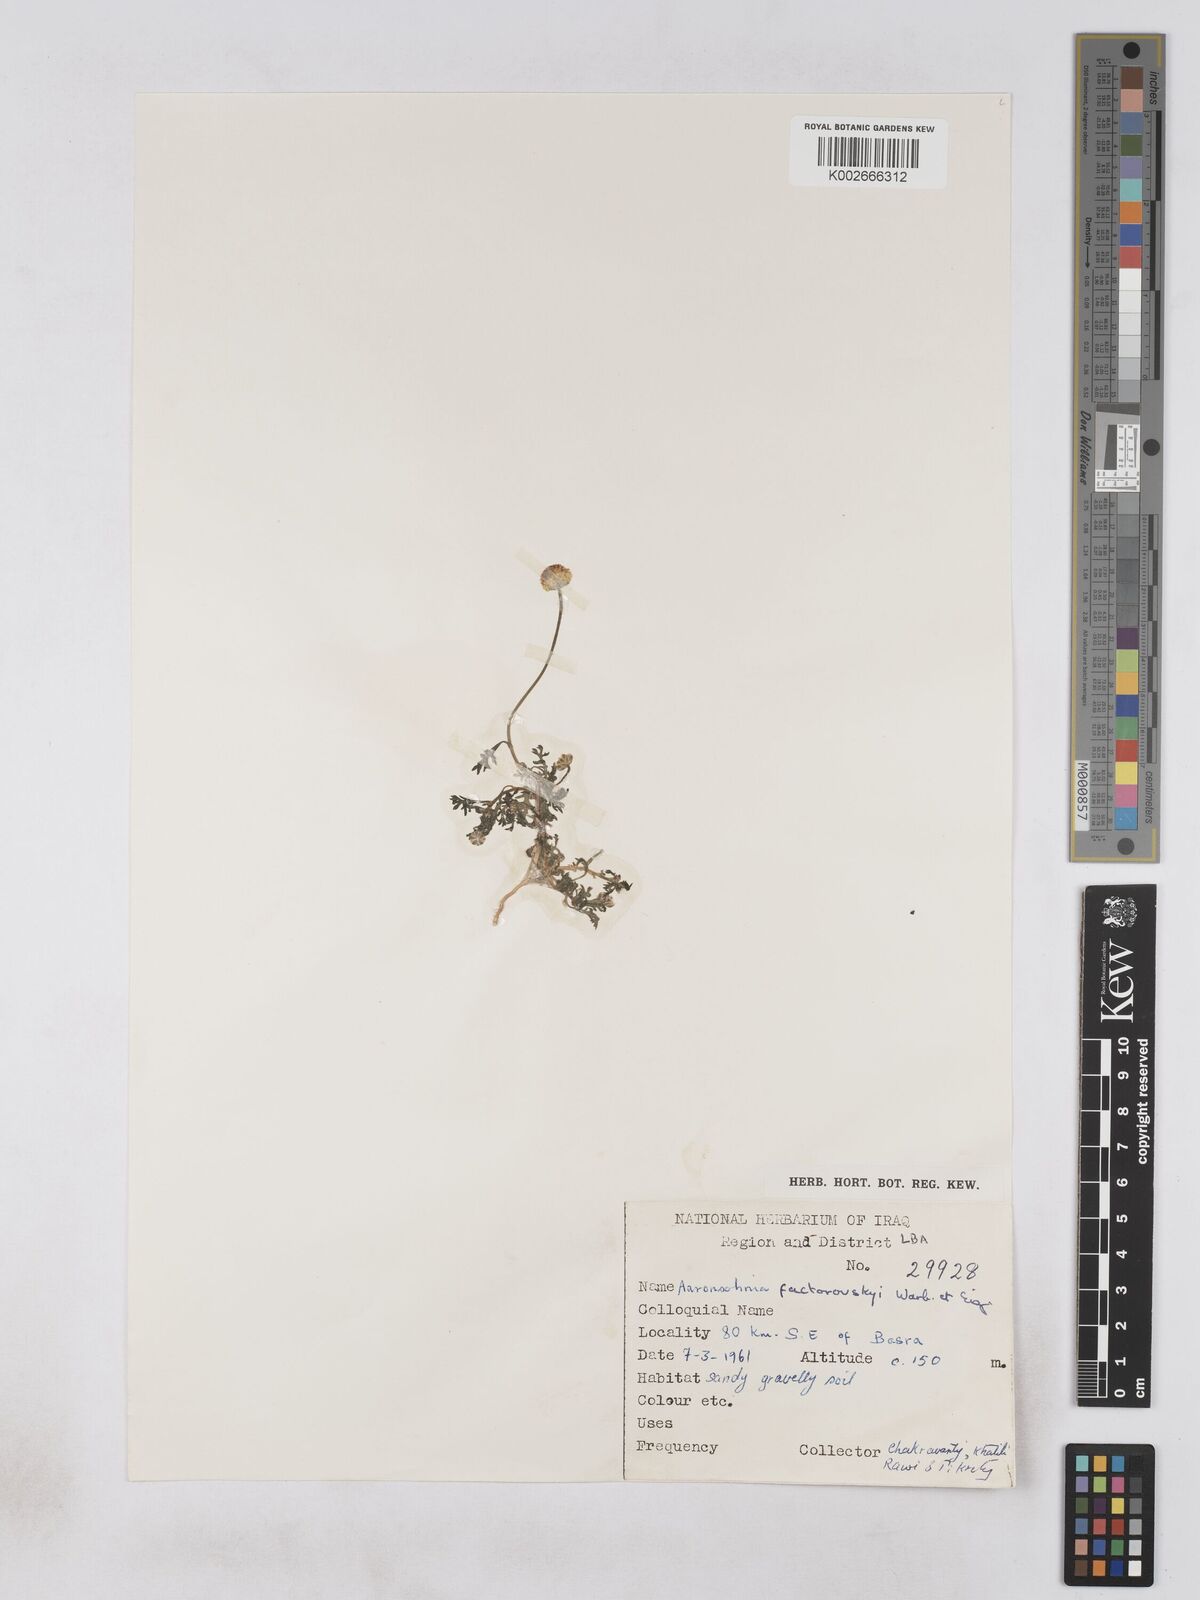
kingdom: Plantae
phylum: Tracheophyta
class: Magnoliopsida
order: Asterales
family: Asteraceae
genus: Otoglyphis
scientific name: Otoglyphis factorovskyi
